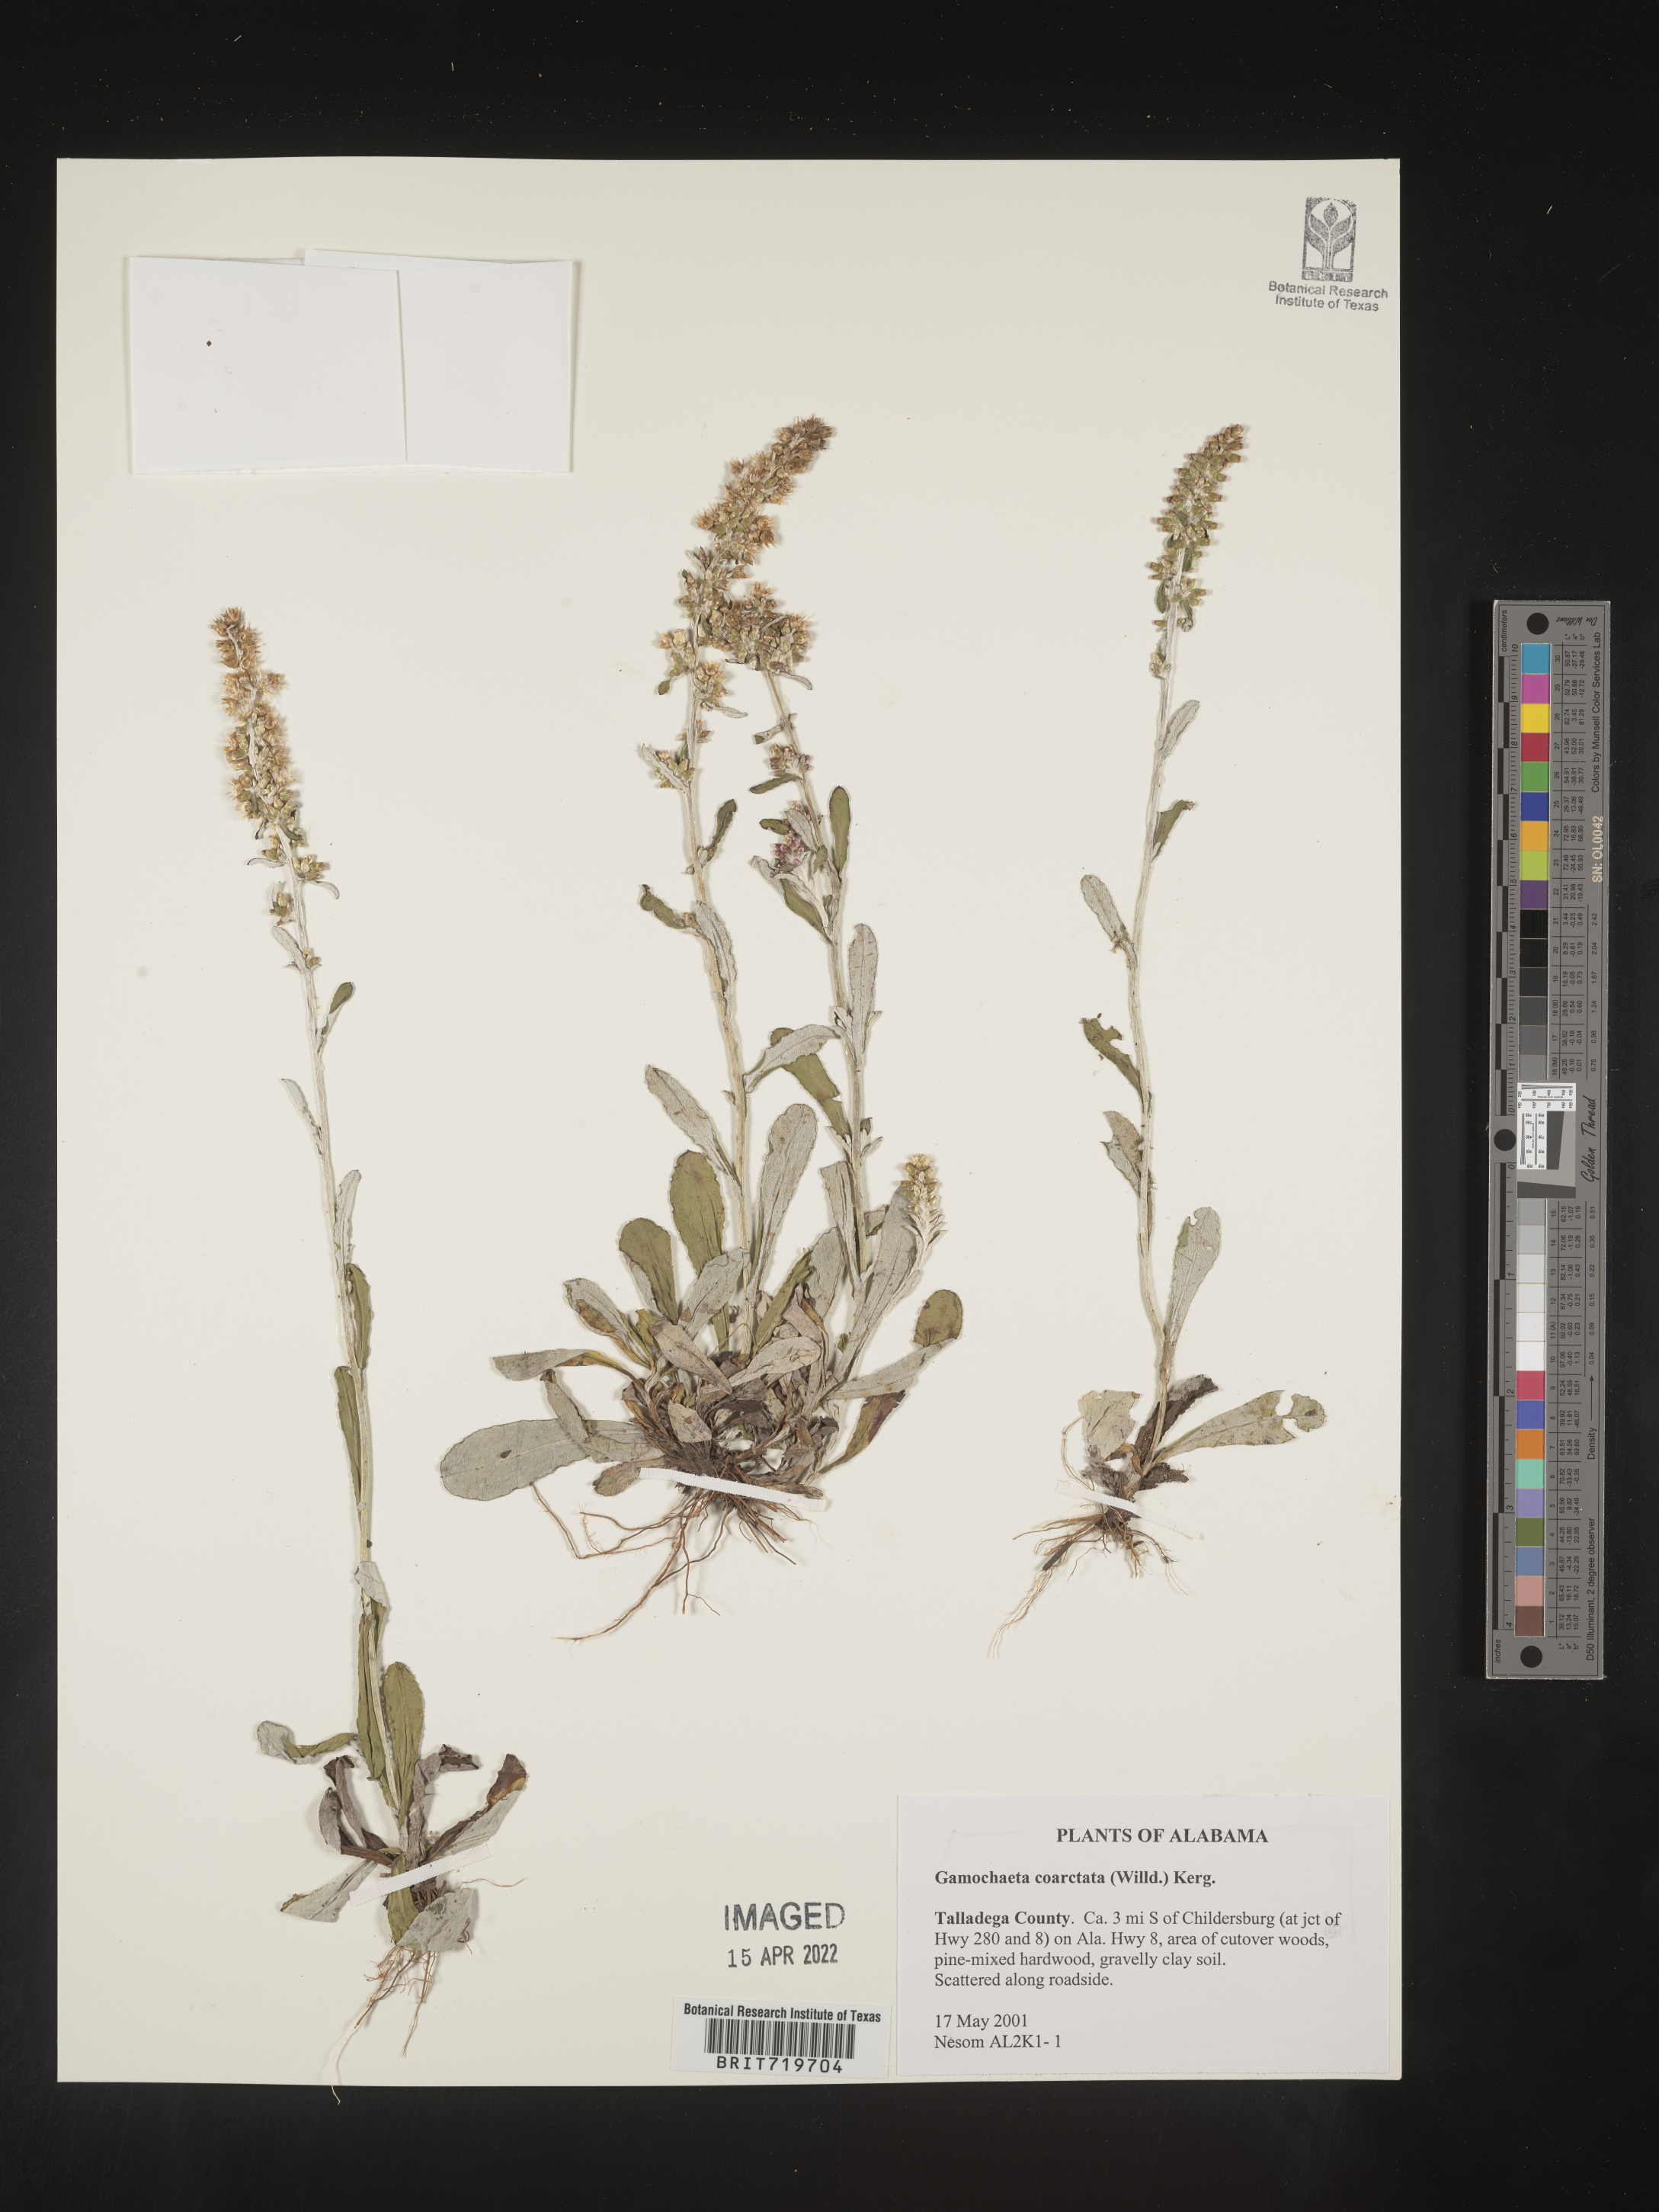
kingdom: Plantae
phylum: Tracheophyta
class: Magnoliopsida
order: Asterales
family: Asteraceae
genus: Gamochaeta
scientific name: Gamochaeta americana
